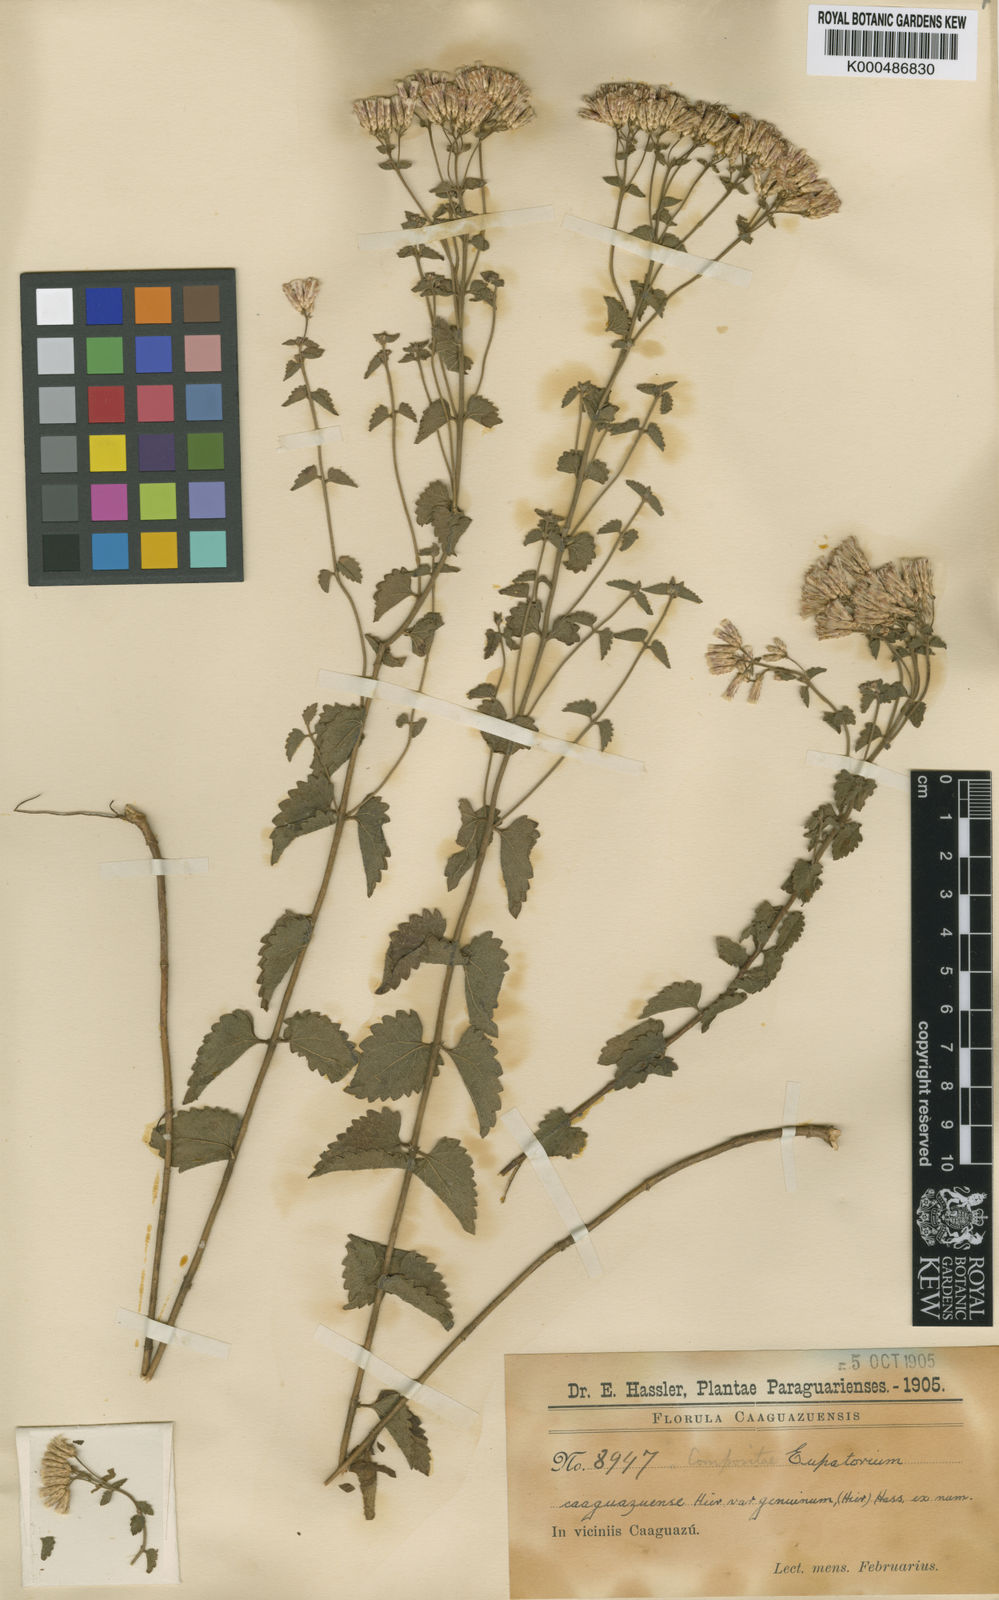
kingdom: Plantae
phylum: Tracheophyta
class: Magnoliopsida
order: Asterales
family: Asteraceae
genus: Chromolaena
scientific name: Chromolaena caaguazuensis
